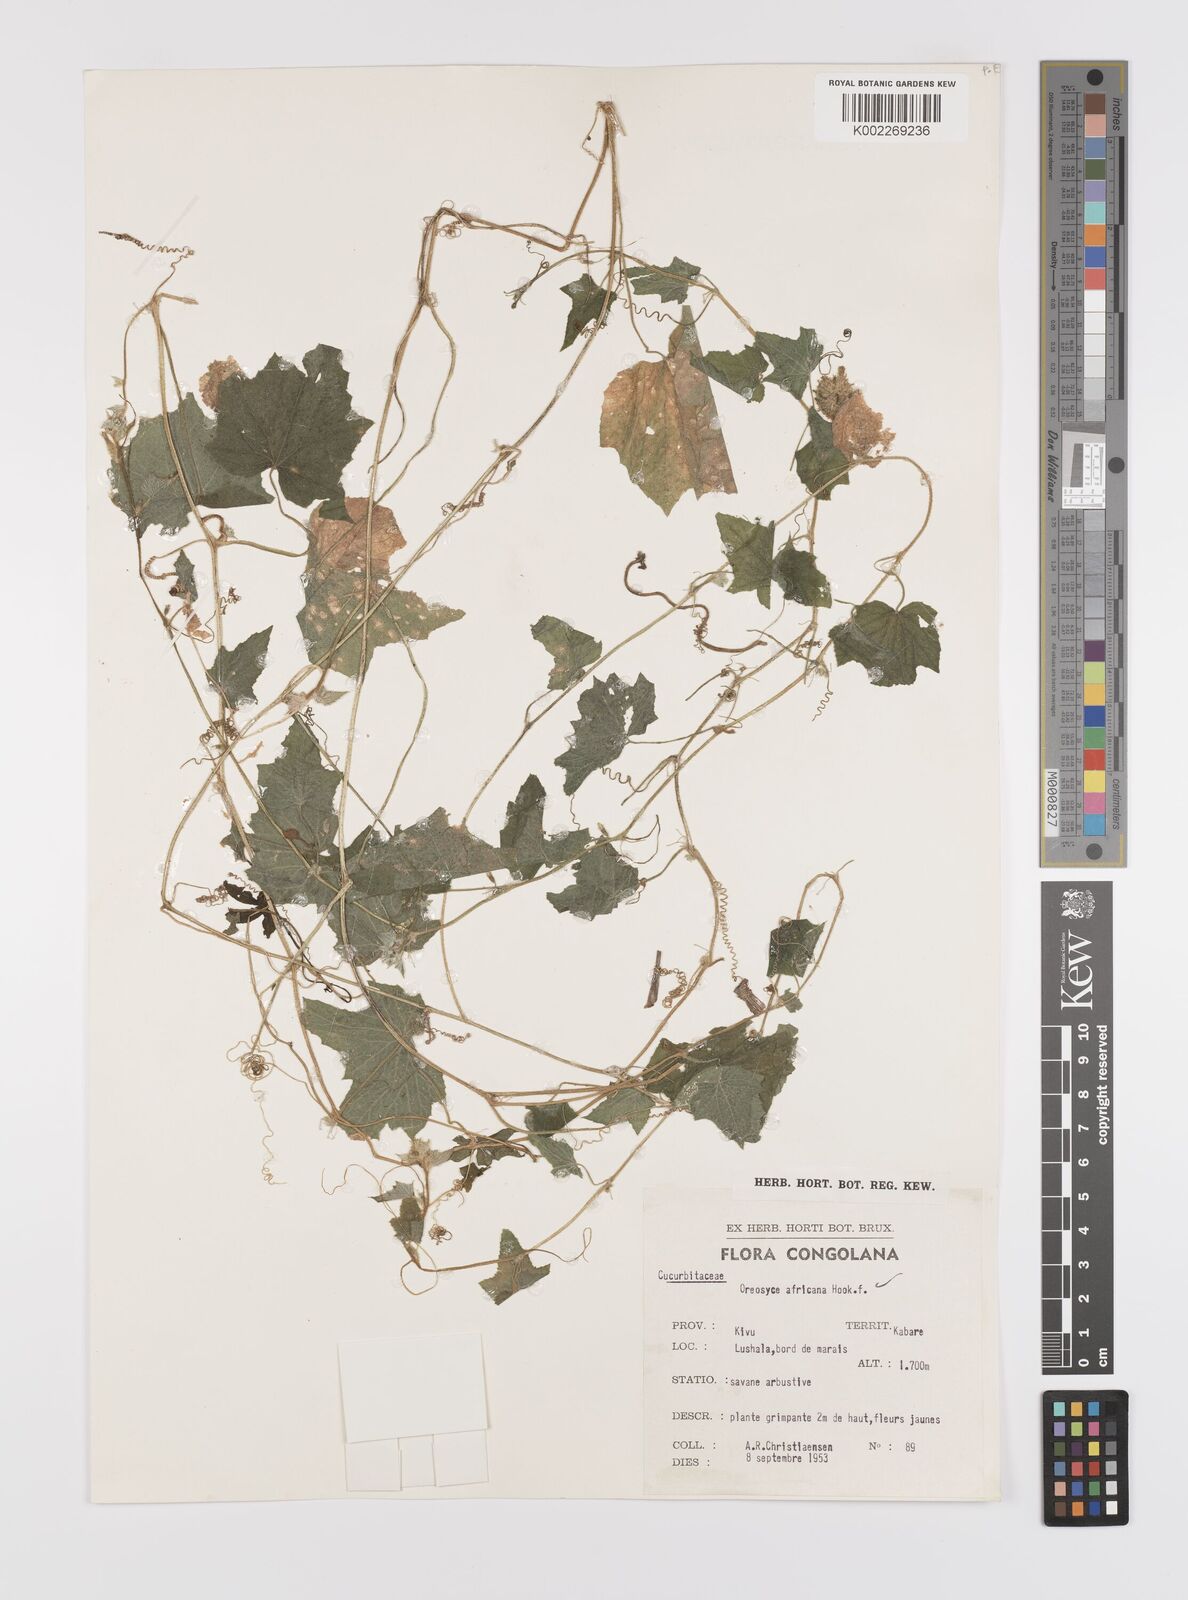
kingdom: Plantae
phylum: Tracheophyta
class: Magnoliopsida
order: Cucurbitales
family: Cucurbitaceae
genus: Cucumis
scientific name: Cucumis oreosyce
